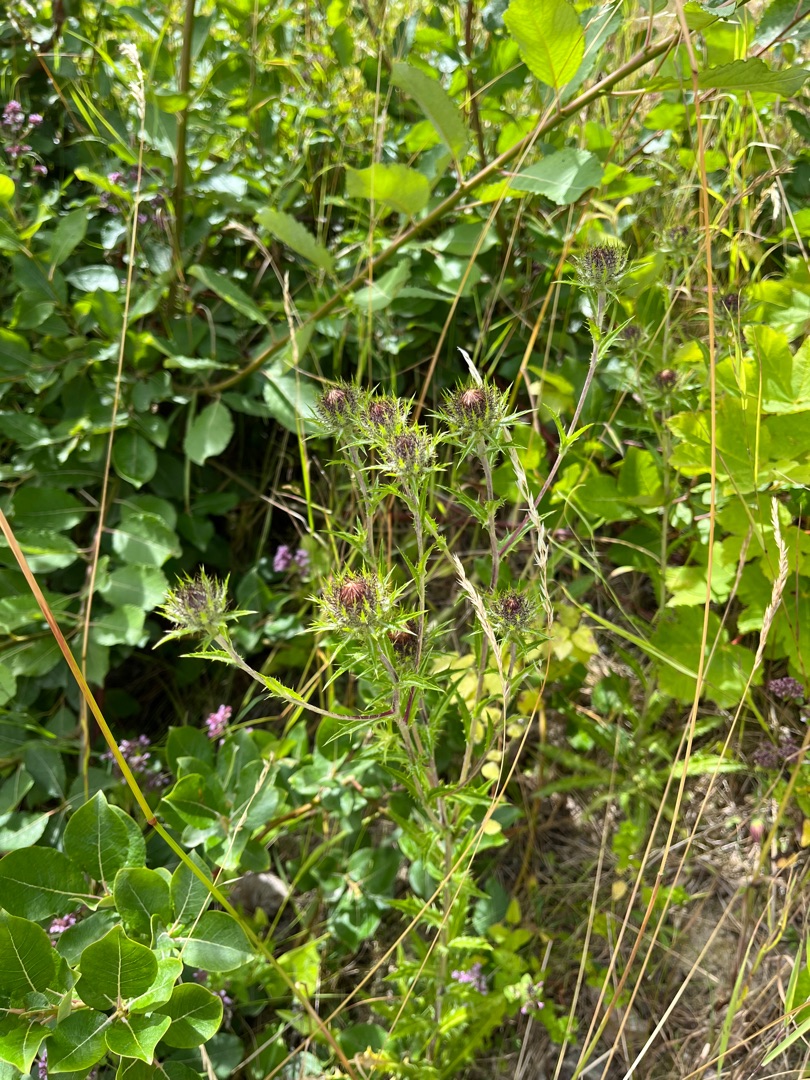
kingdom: Plantae
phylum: Tracheophyta
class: Magnoliopsida
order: Asterales
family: Asteraceae
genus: Carlina
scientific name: Carlina vulgaris
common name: Bakketidsel
